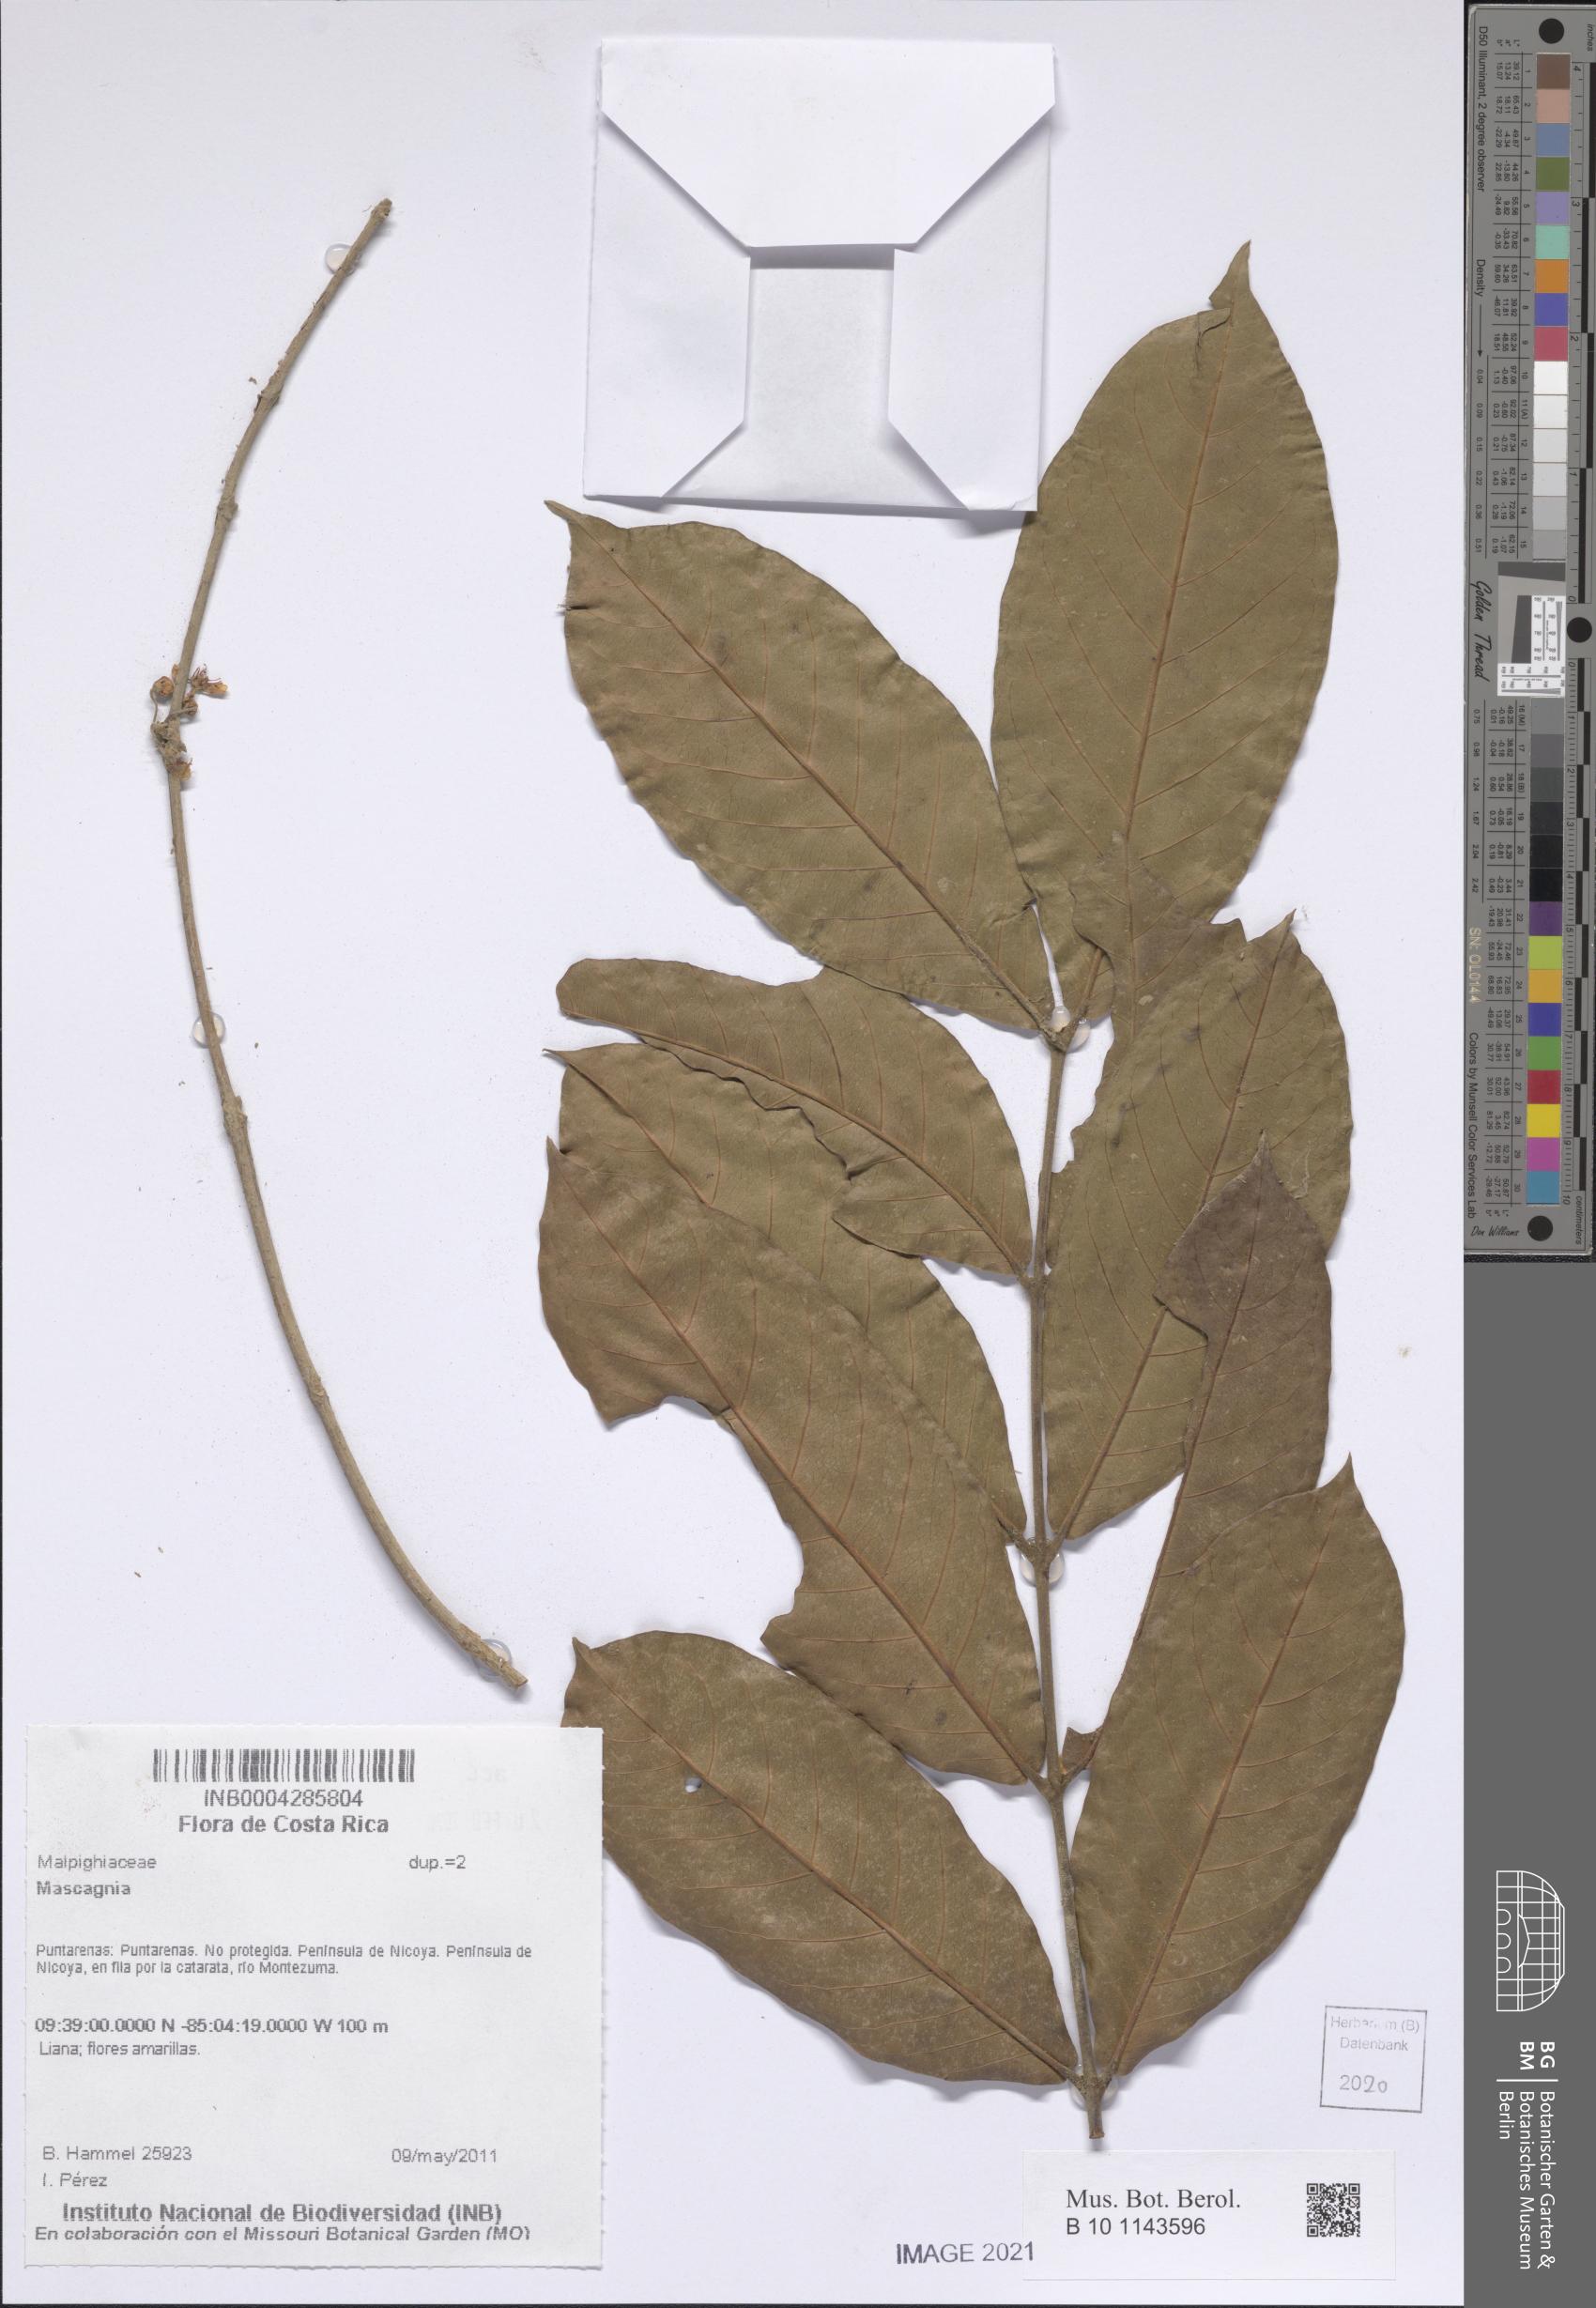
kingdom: Plantae
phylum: Tracheophyta
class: Magnoliopsida
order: Malpighiales
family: Malpighiaceae
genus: Mascagnia
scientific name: Mascagnia
